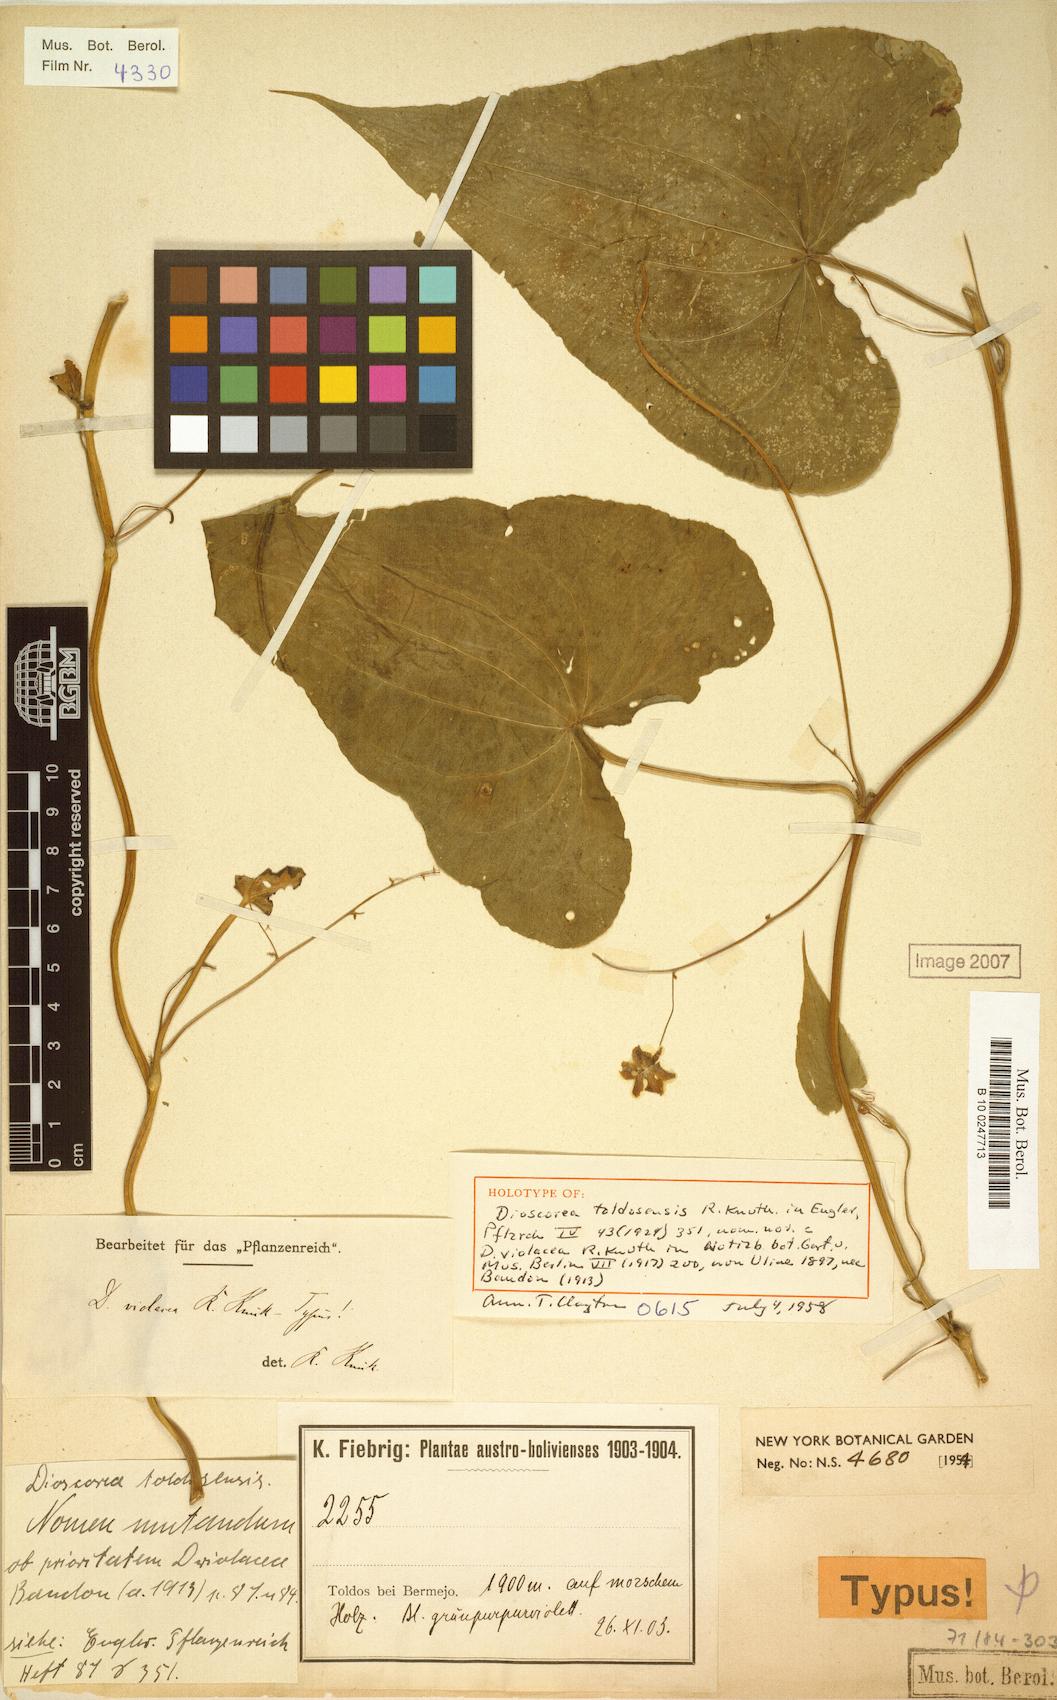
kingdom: Plantae
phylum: Tracheophyta
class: Liliopsida
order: Dioscoreales
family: Dioscoreaceae
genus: Dioscorea
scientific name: Dioscorea toldosensis
